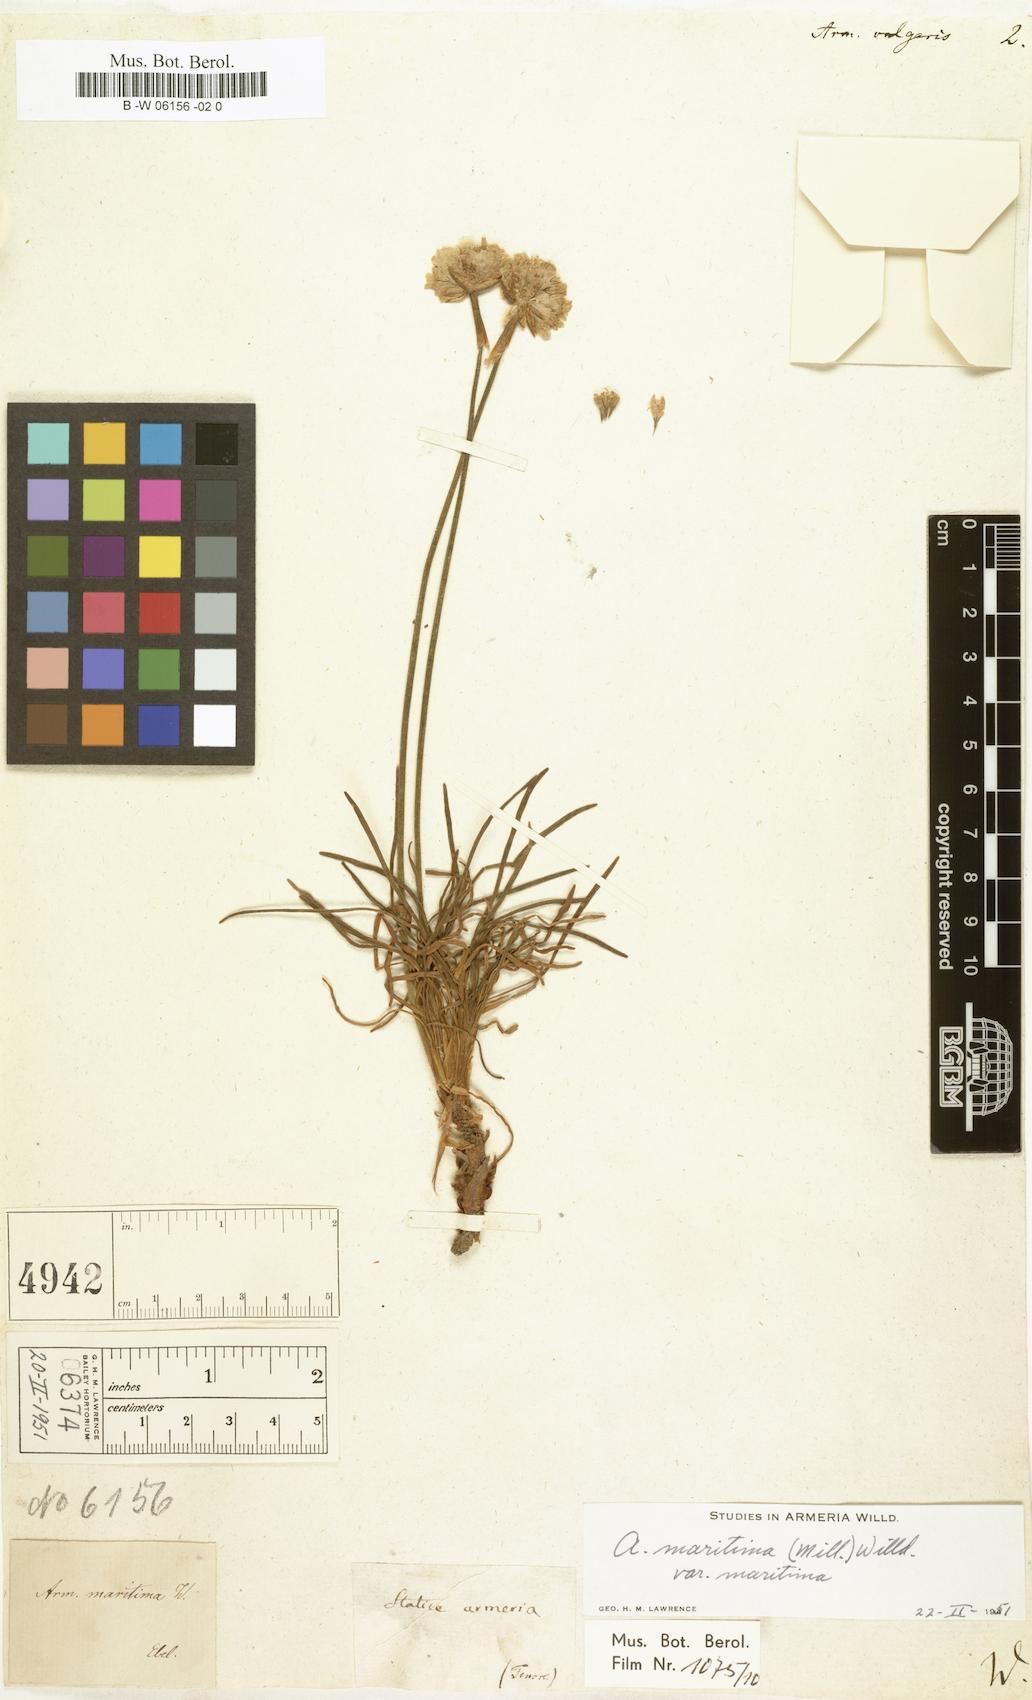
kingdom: Plantae
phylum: Tracheophyta
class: Magnoliopsida
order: Caryophyllales
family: Plumbaginaceae
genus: Armeria
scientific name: Armeria maritima
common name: Thrift
